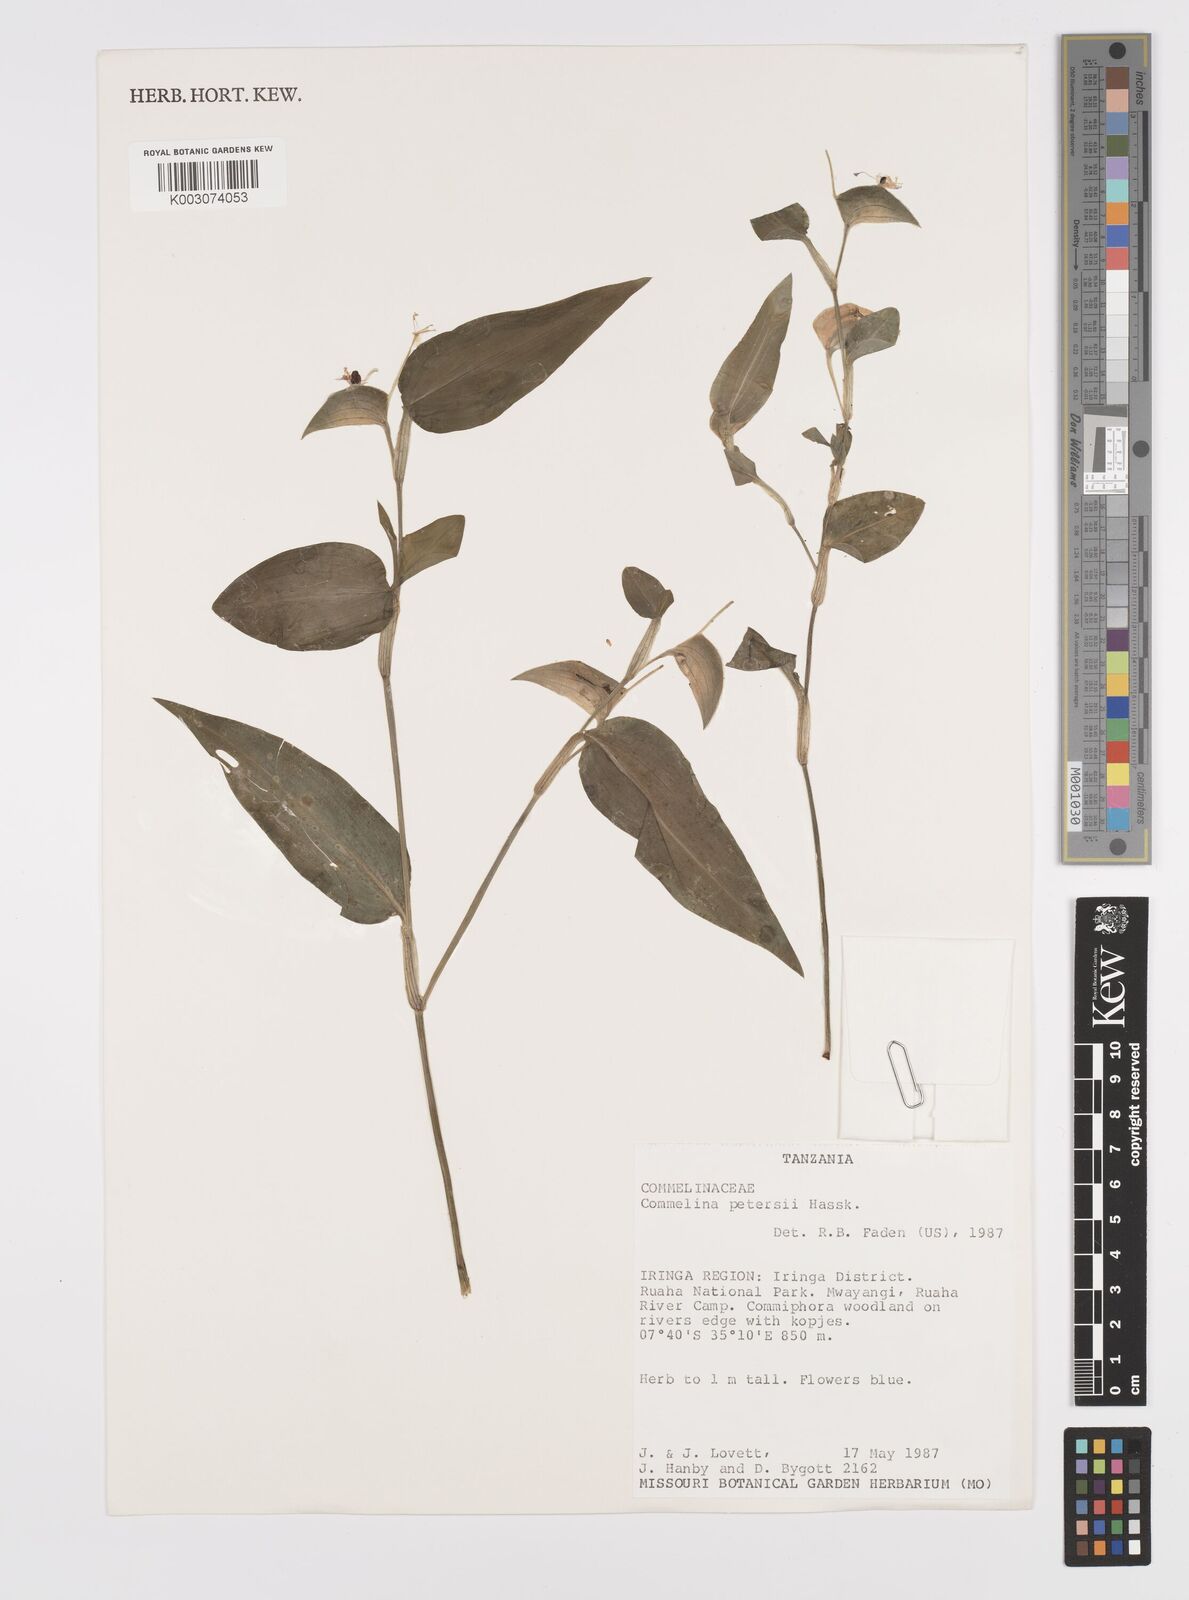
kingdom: Plantae
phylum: Tracheophyta
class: Liliopsida
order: Commelinales
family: Commelinaceae
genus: Commelina
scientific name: Commelina petersii
